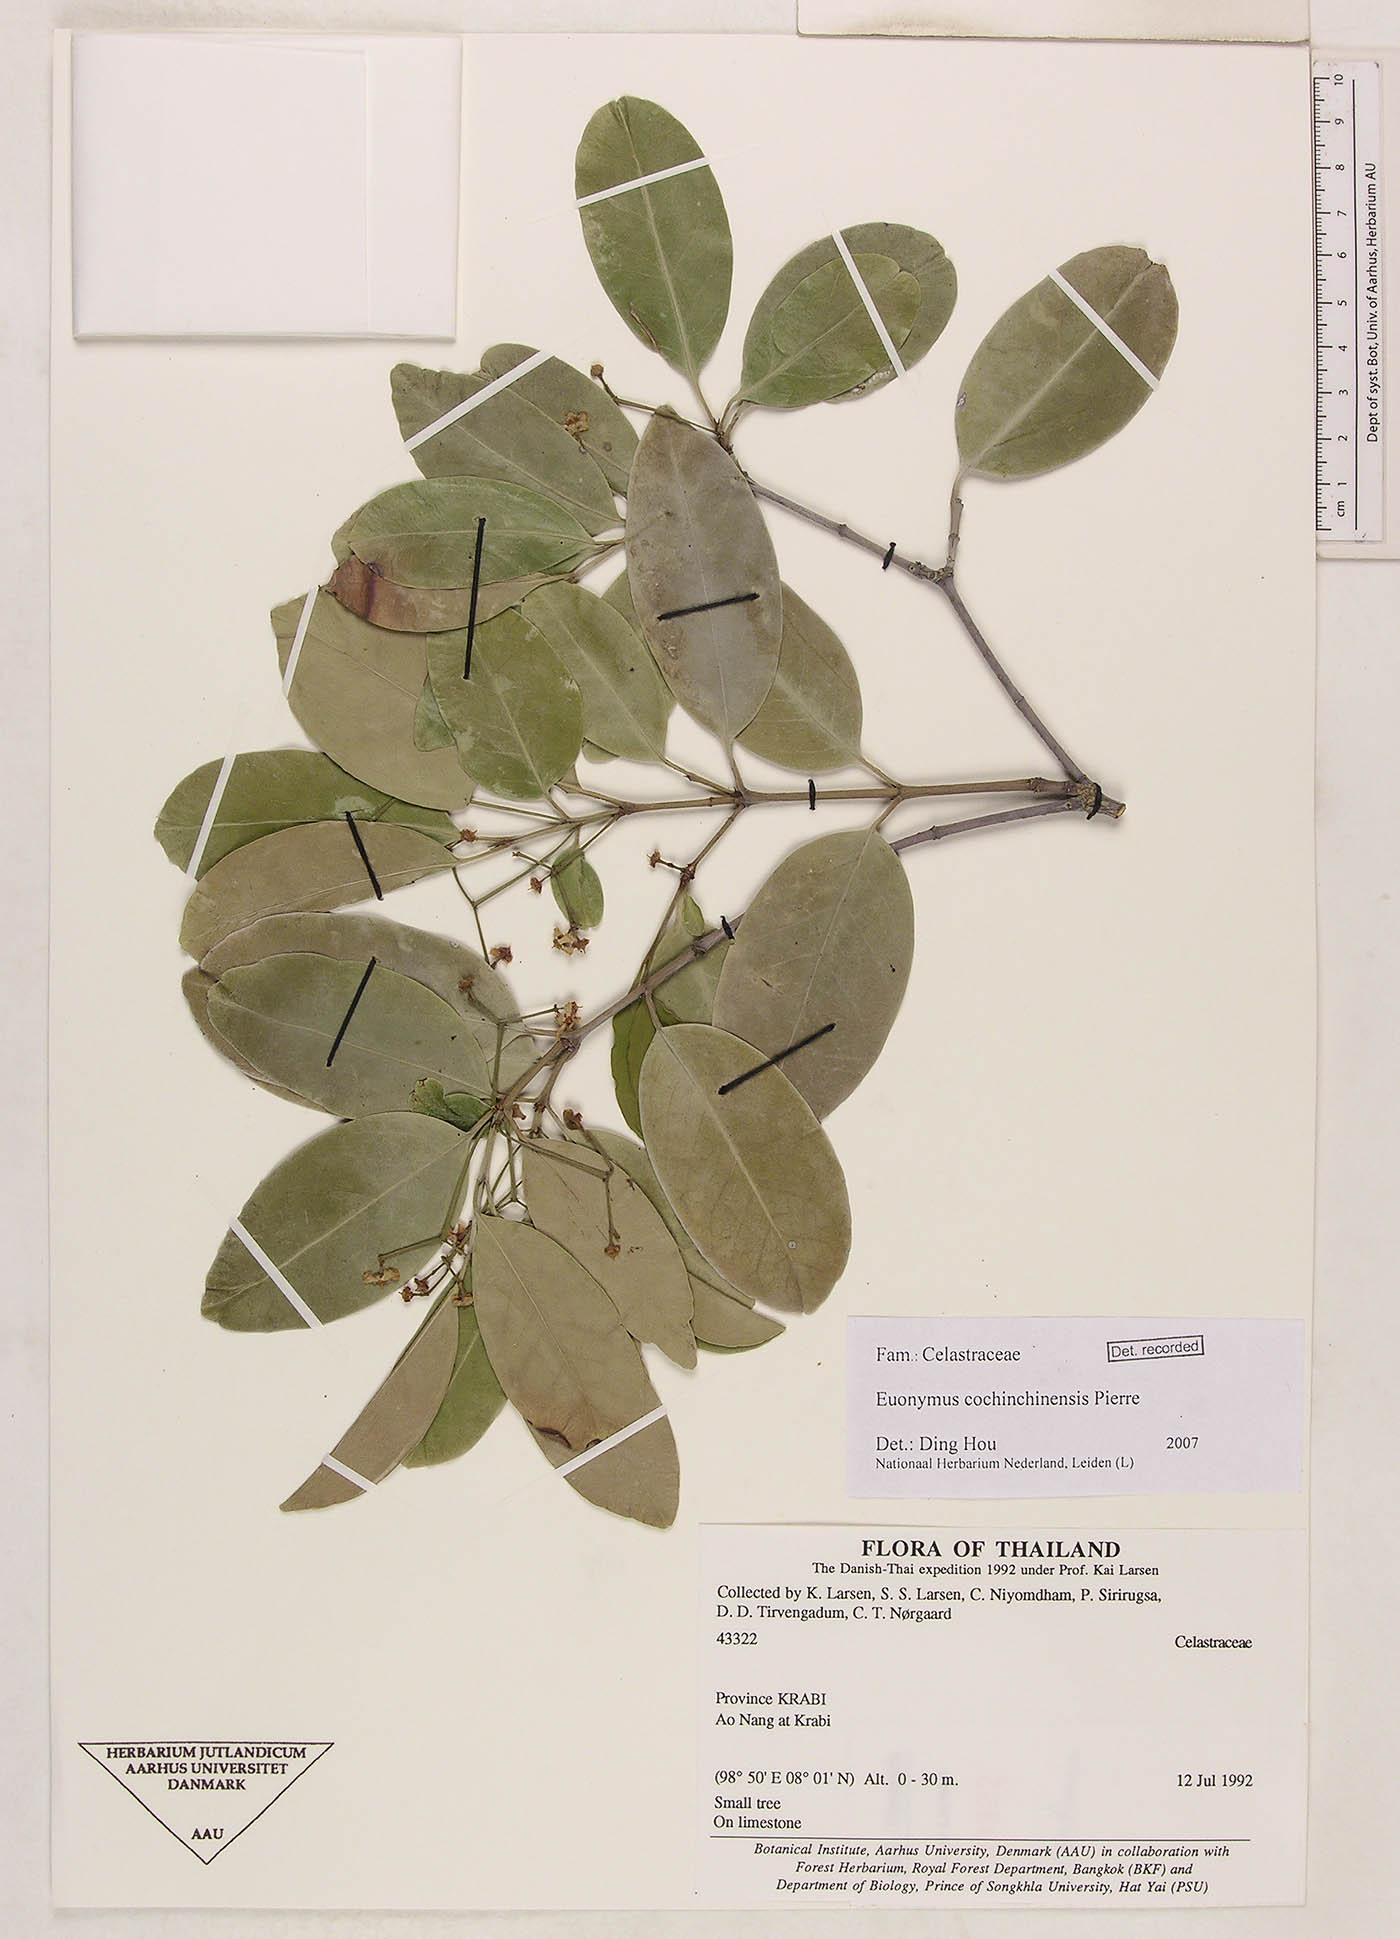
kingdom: Plantae
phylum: Tracheophyta
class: Magnoliopsida
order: Celastrales
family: Celastraceae
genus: Euonymus
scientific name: Euonymus cochinchinensis
